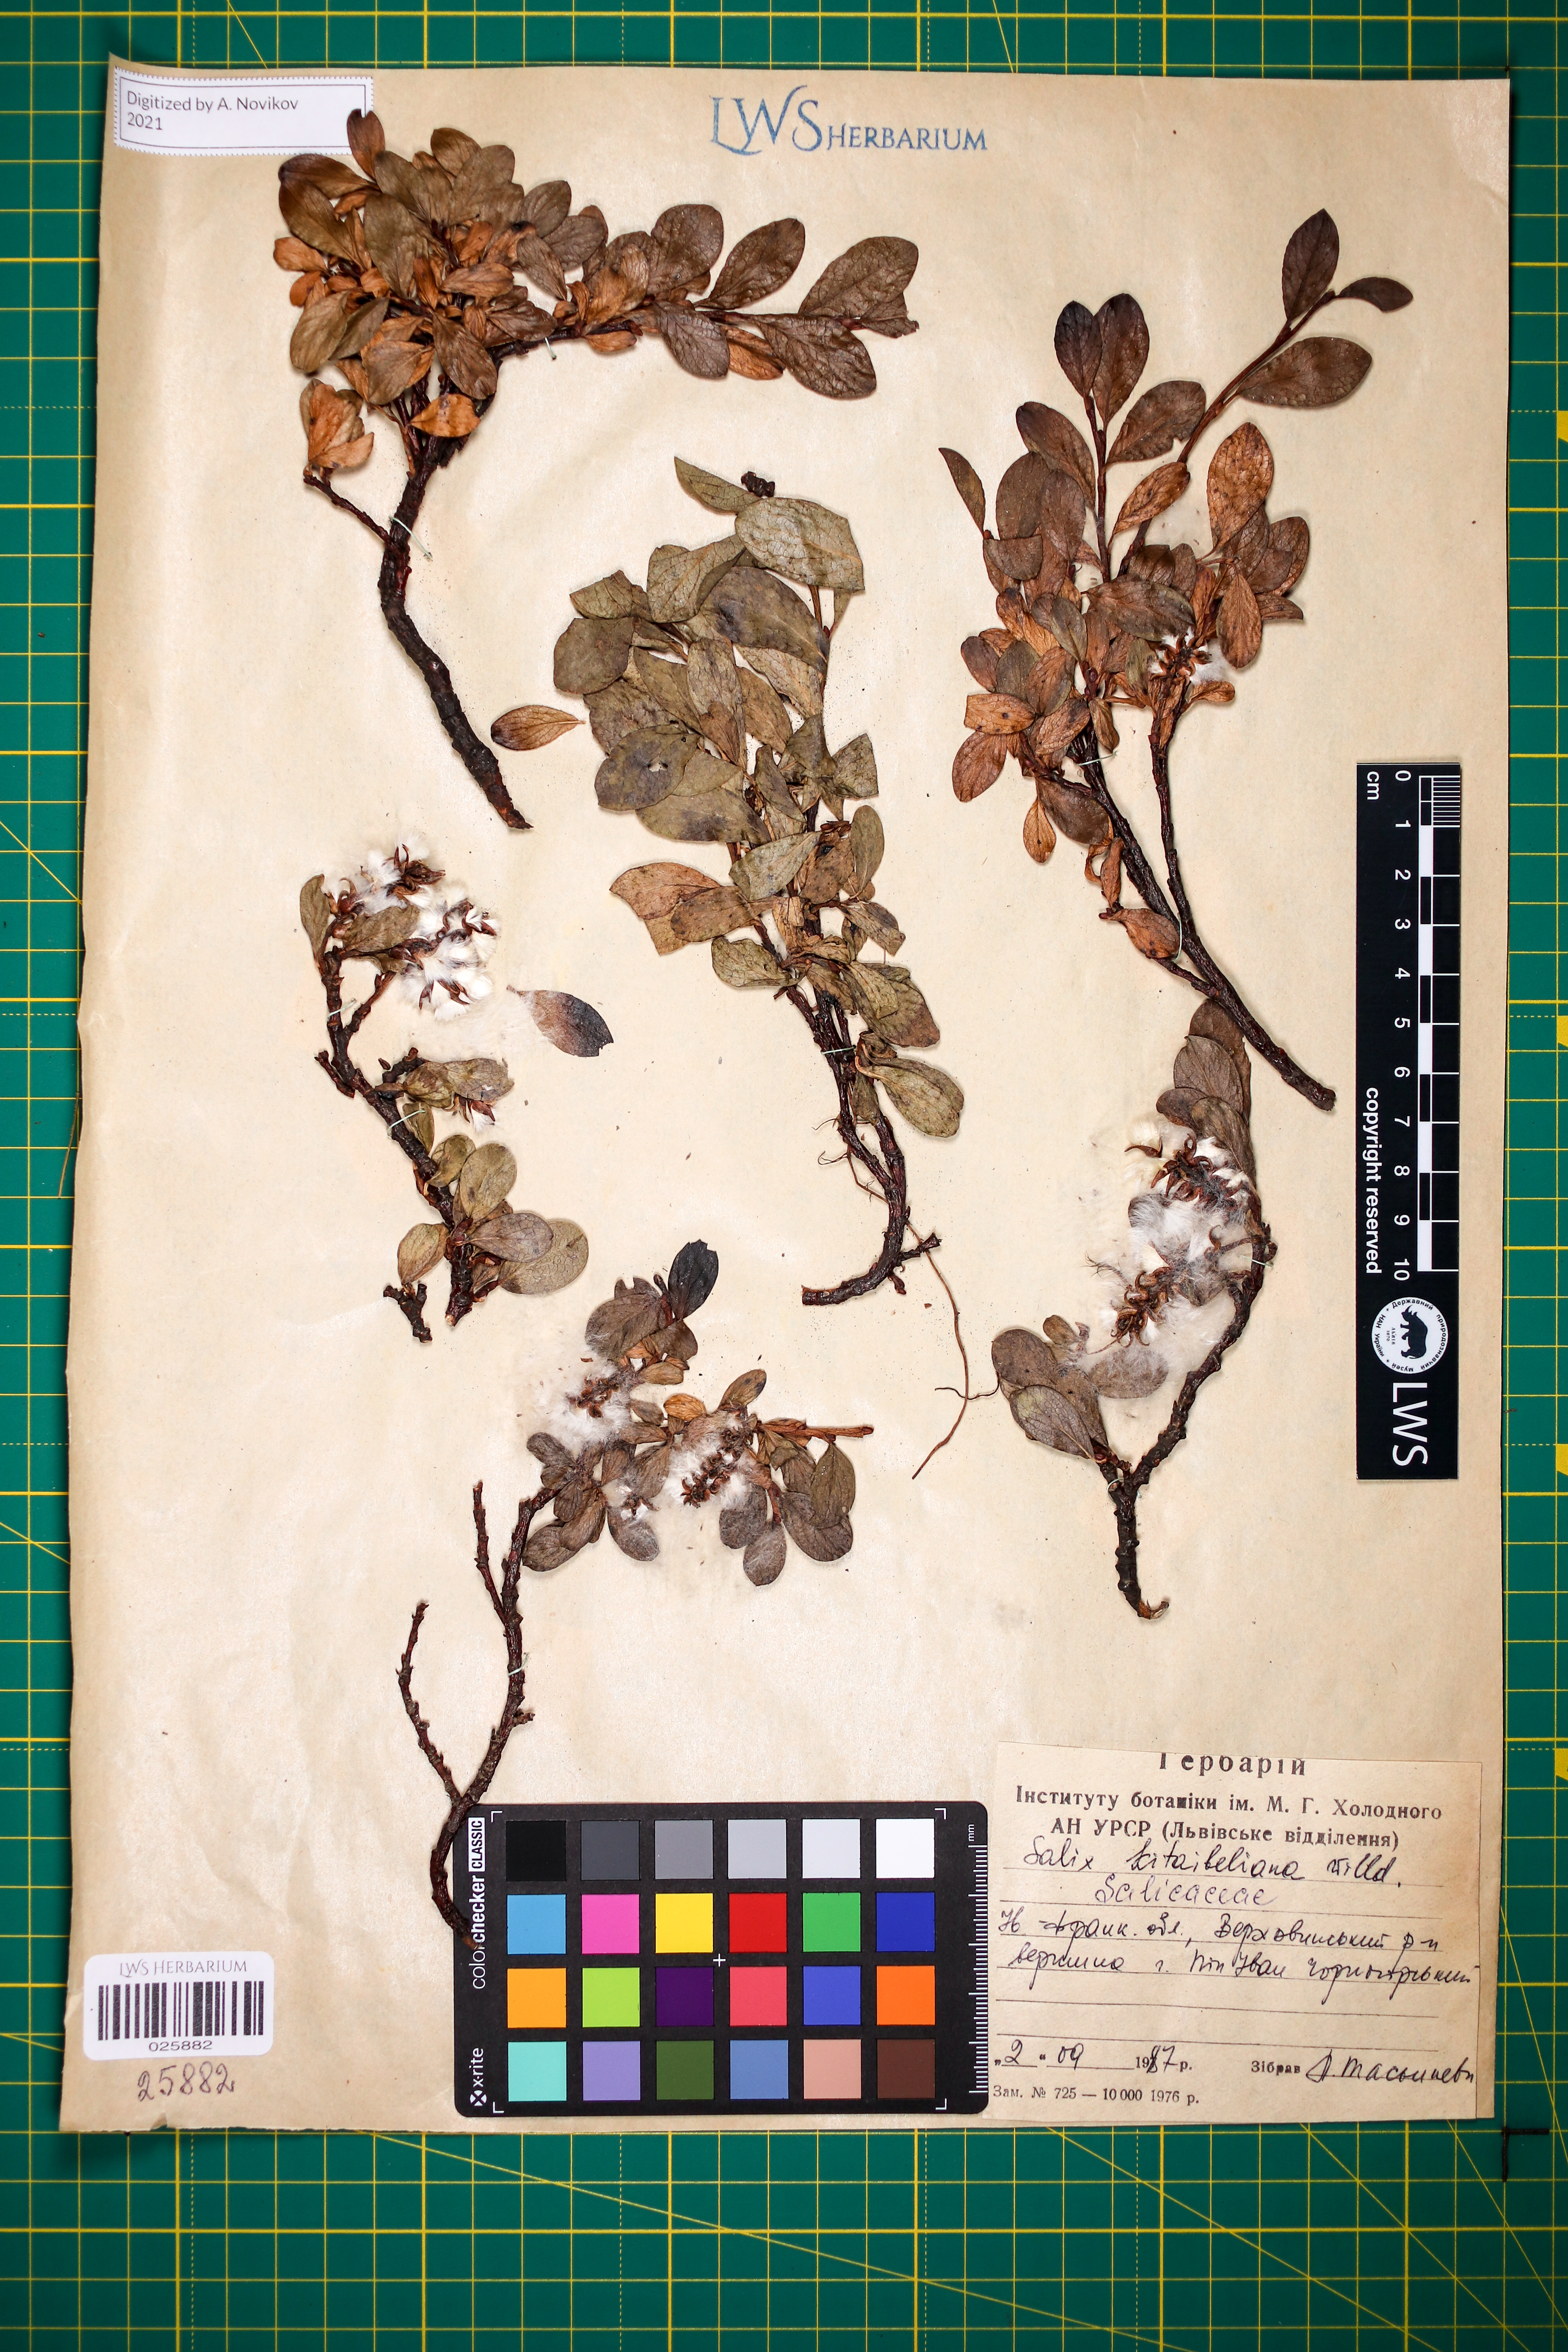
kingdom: Plantae
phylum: Tracheophyta
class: Magnoliopsida
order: Malpighiales
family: Salicaceae
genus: Salix
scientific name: Salix retusa
